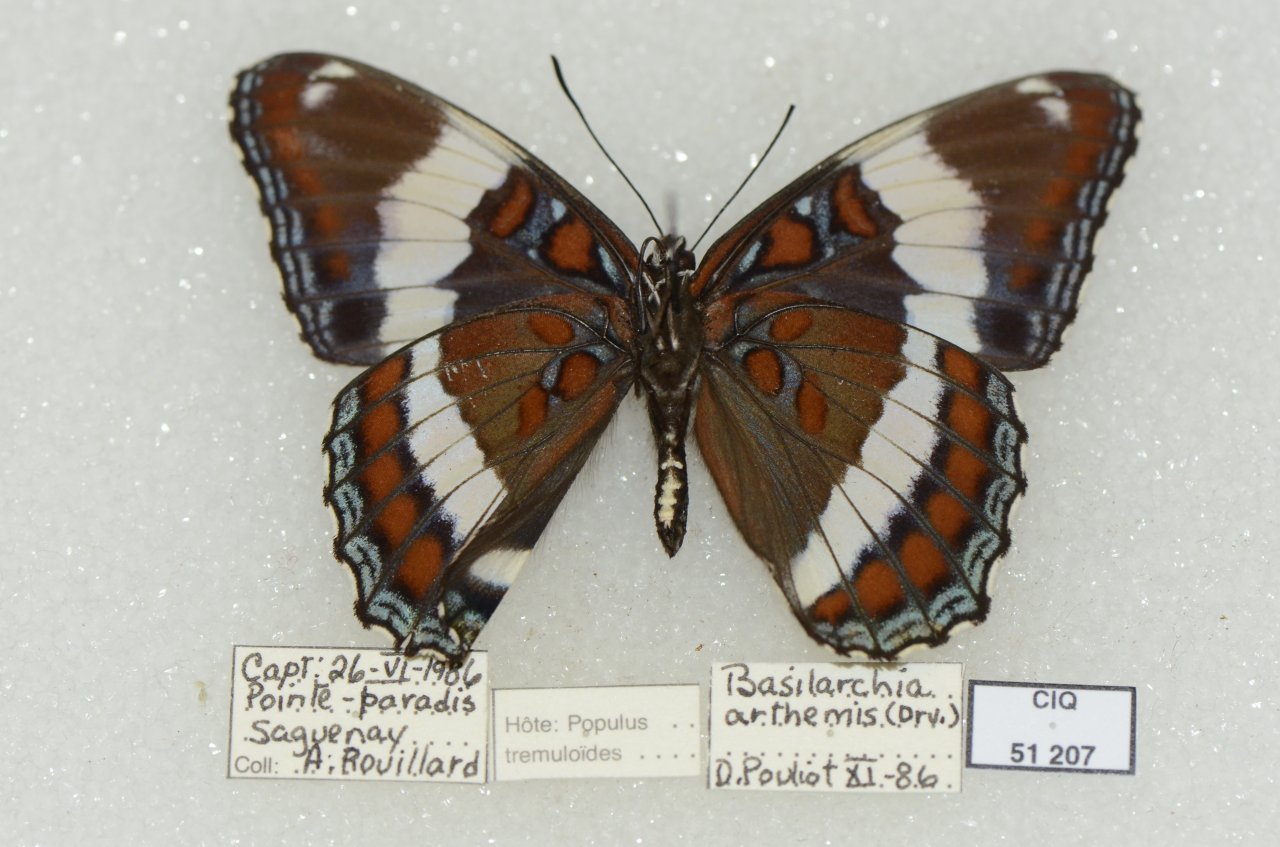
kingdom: Animalia
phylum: Arthropoda
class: Insecta
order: Lepidoptera
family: Nymphalidae
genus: Limenitis
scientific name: Limenitis arthemis
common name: Red-spotted Admiral
